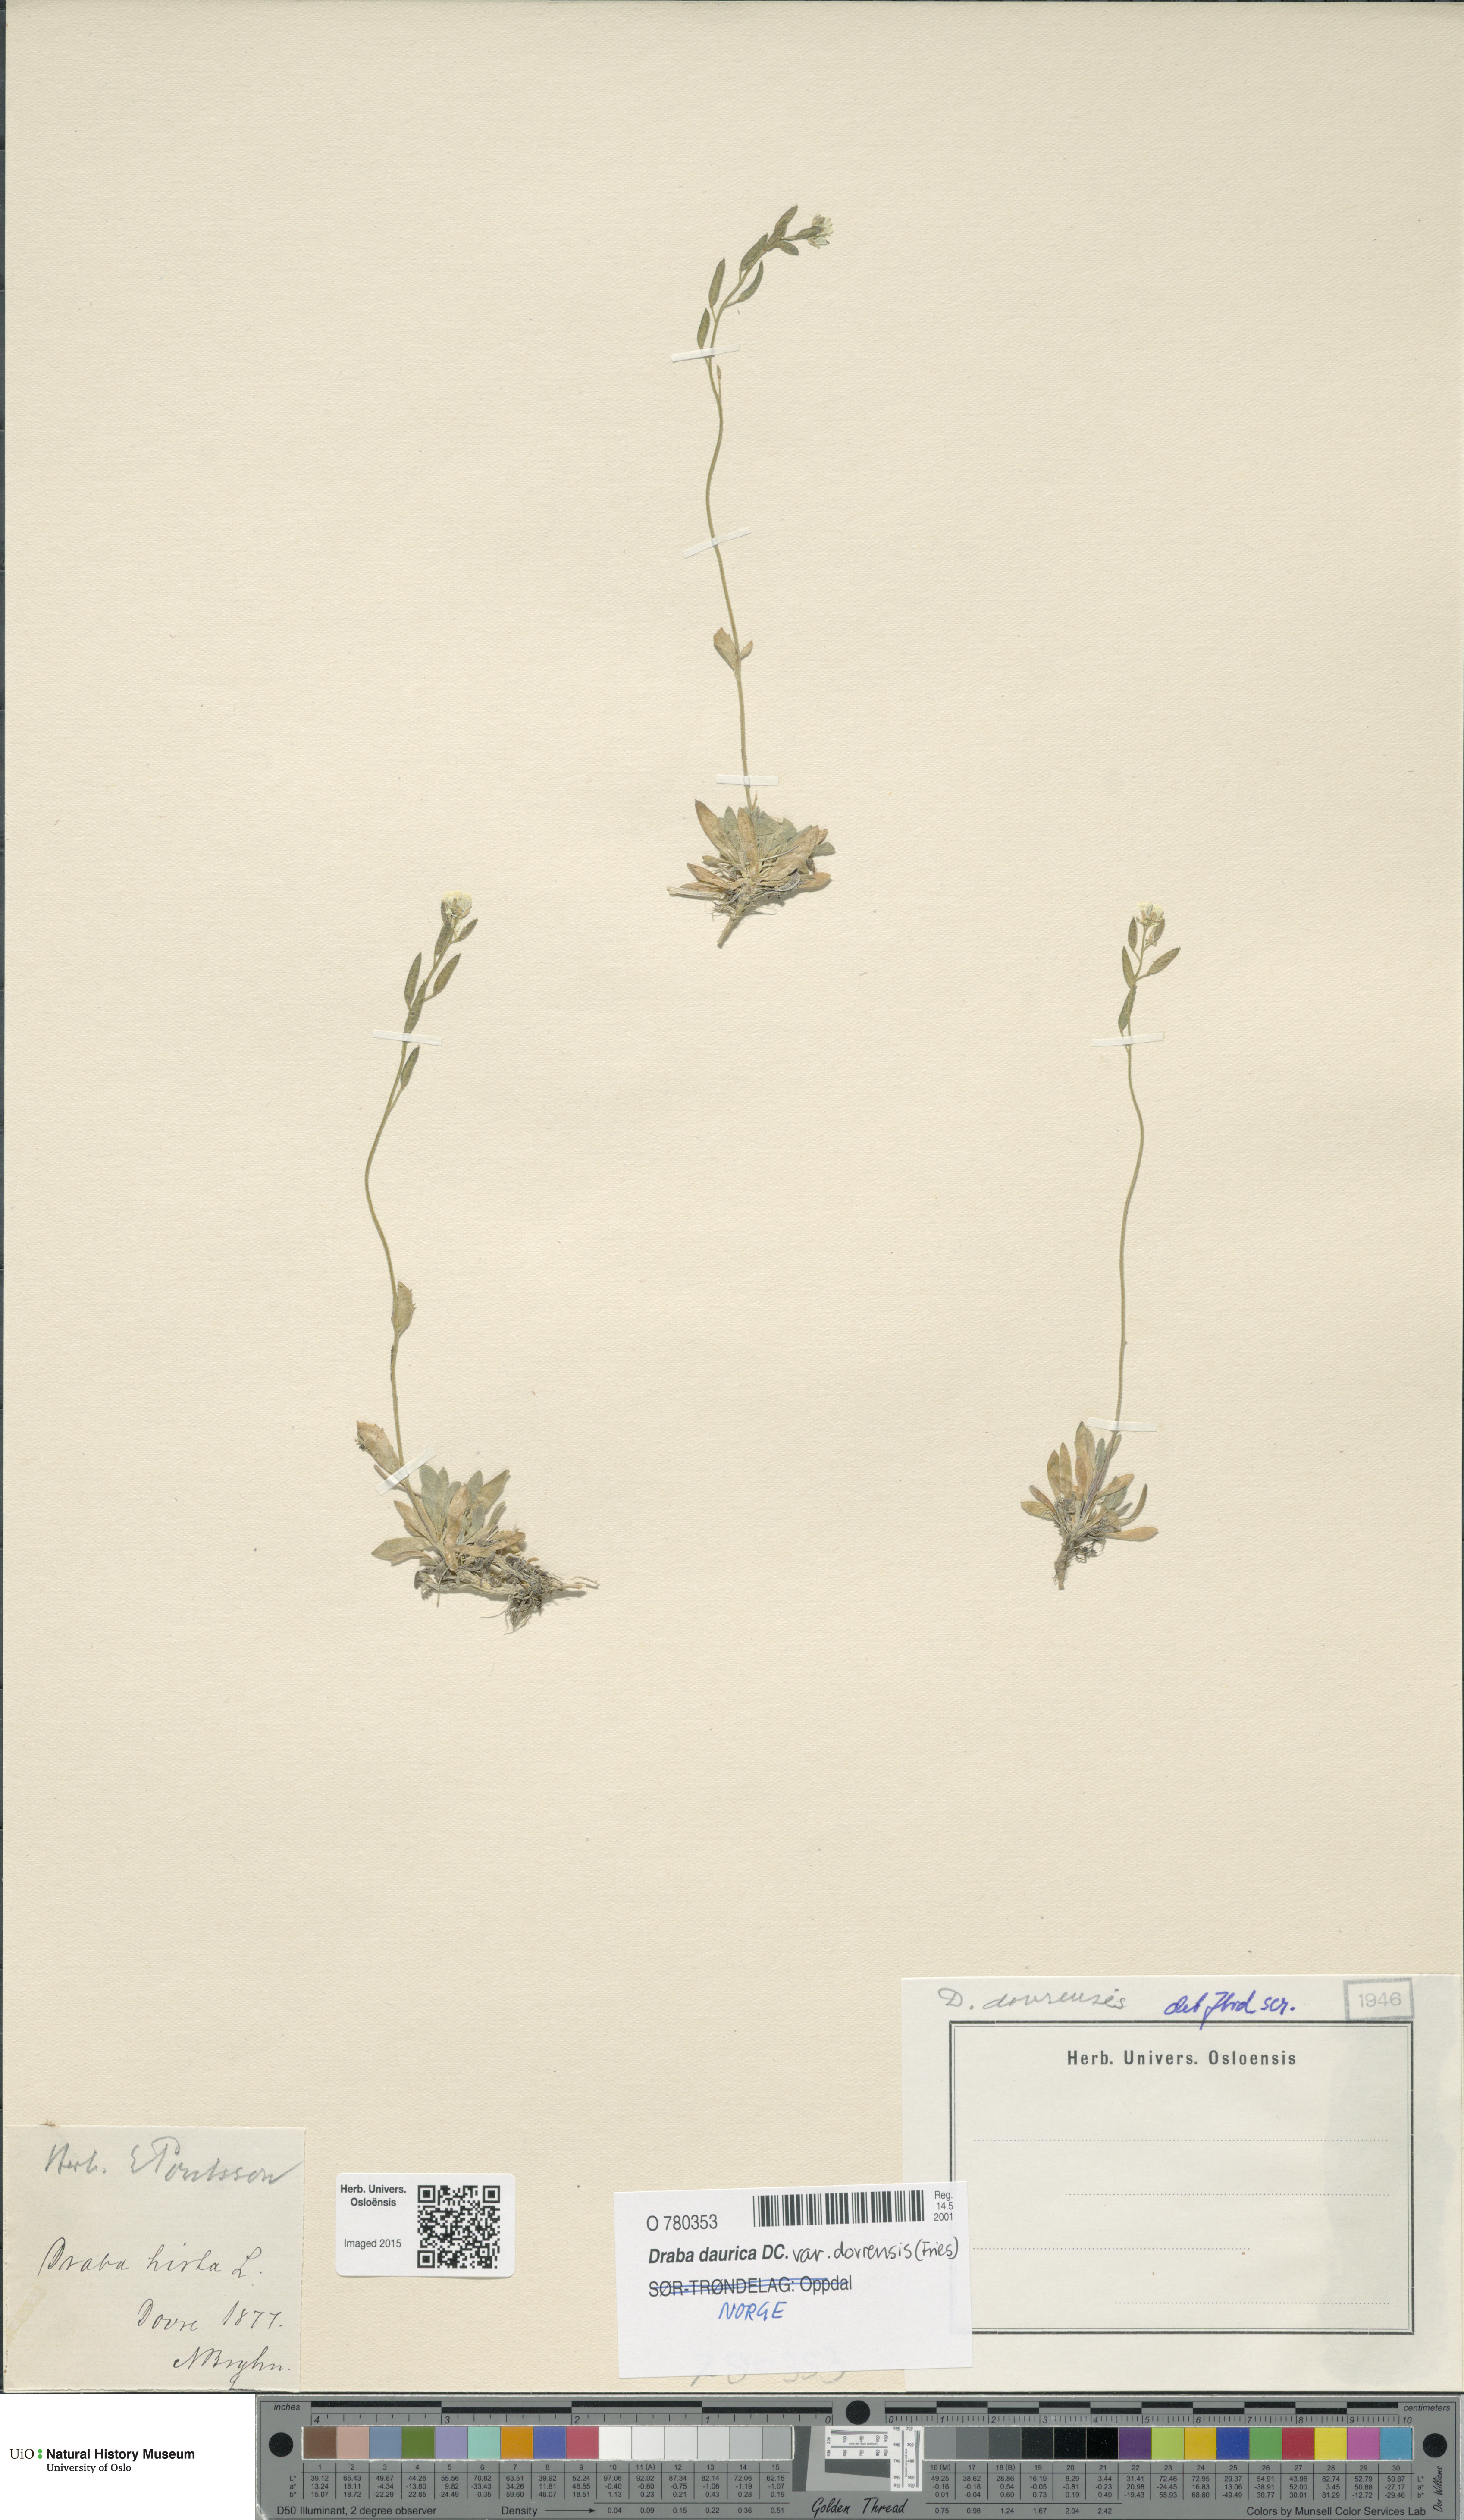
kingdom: Plantae
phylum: Tracheophyta
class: Magnoliopsida
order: Brassicales
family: Brassicaceae
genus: Draba
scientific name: Draba glabella
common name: Glaucous draba
